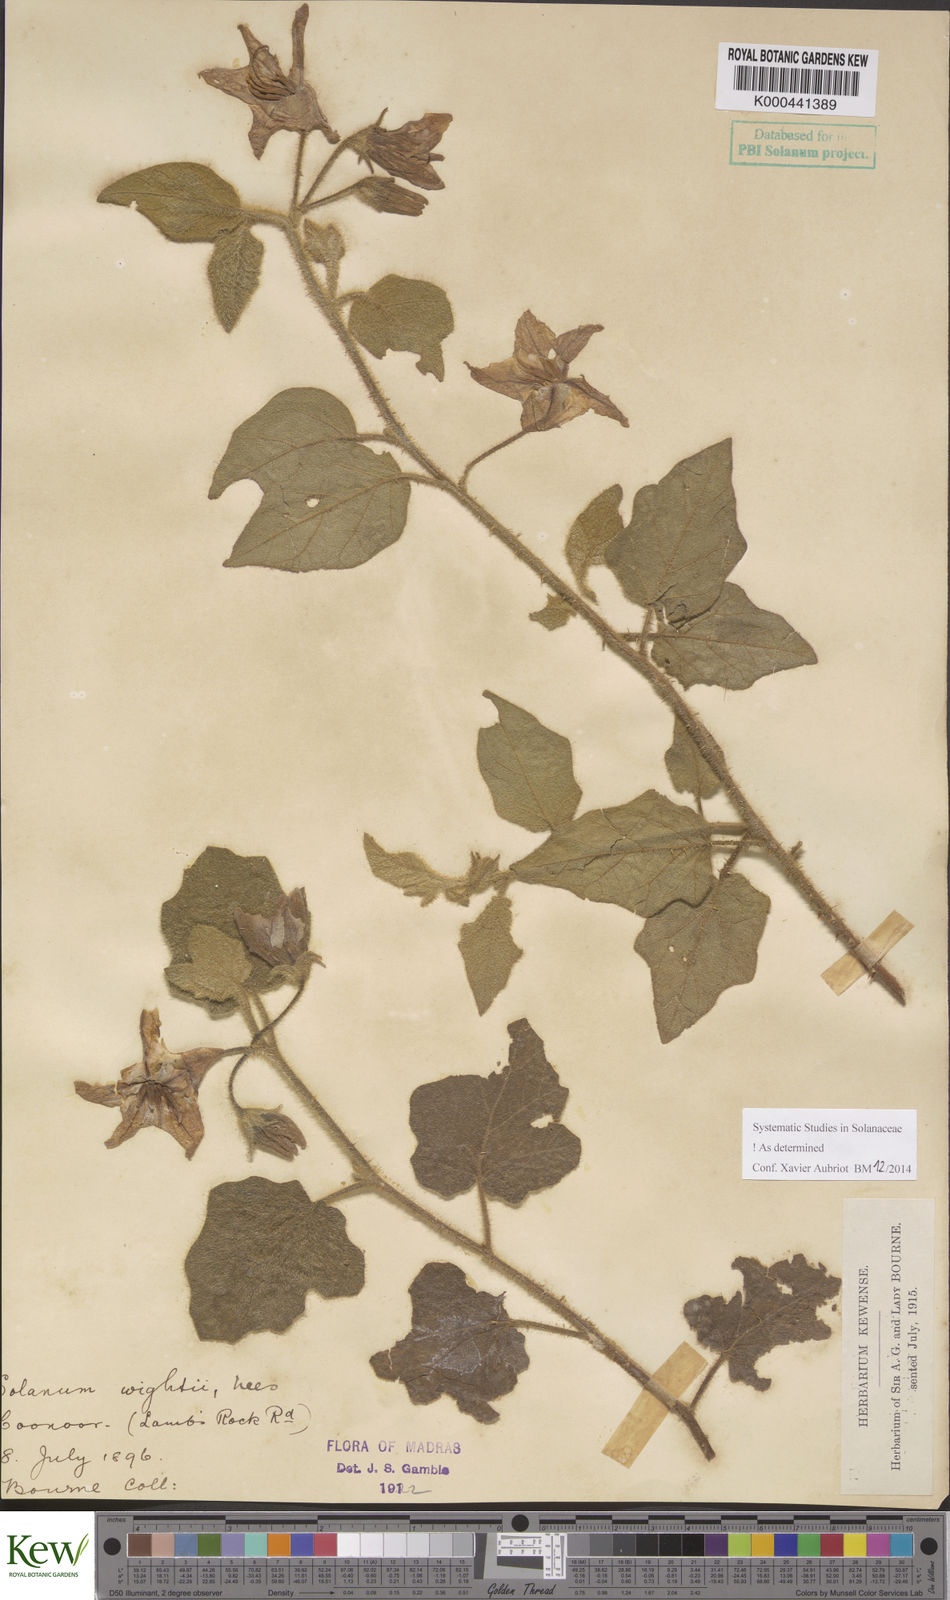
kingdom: Plantae
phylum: Tracheophyta
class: Magnoliopsida
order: Solanales
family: Solanaceae
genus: Solanum
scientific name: Solanum wightii
